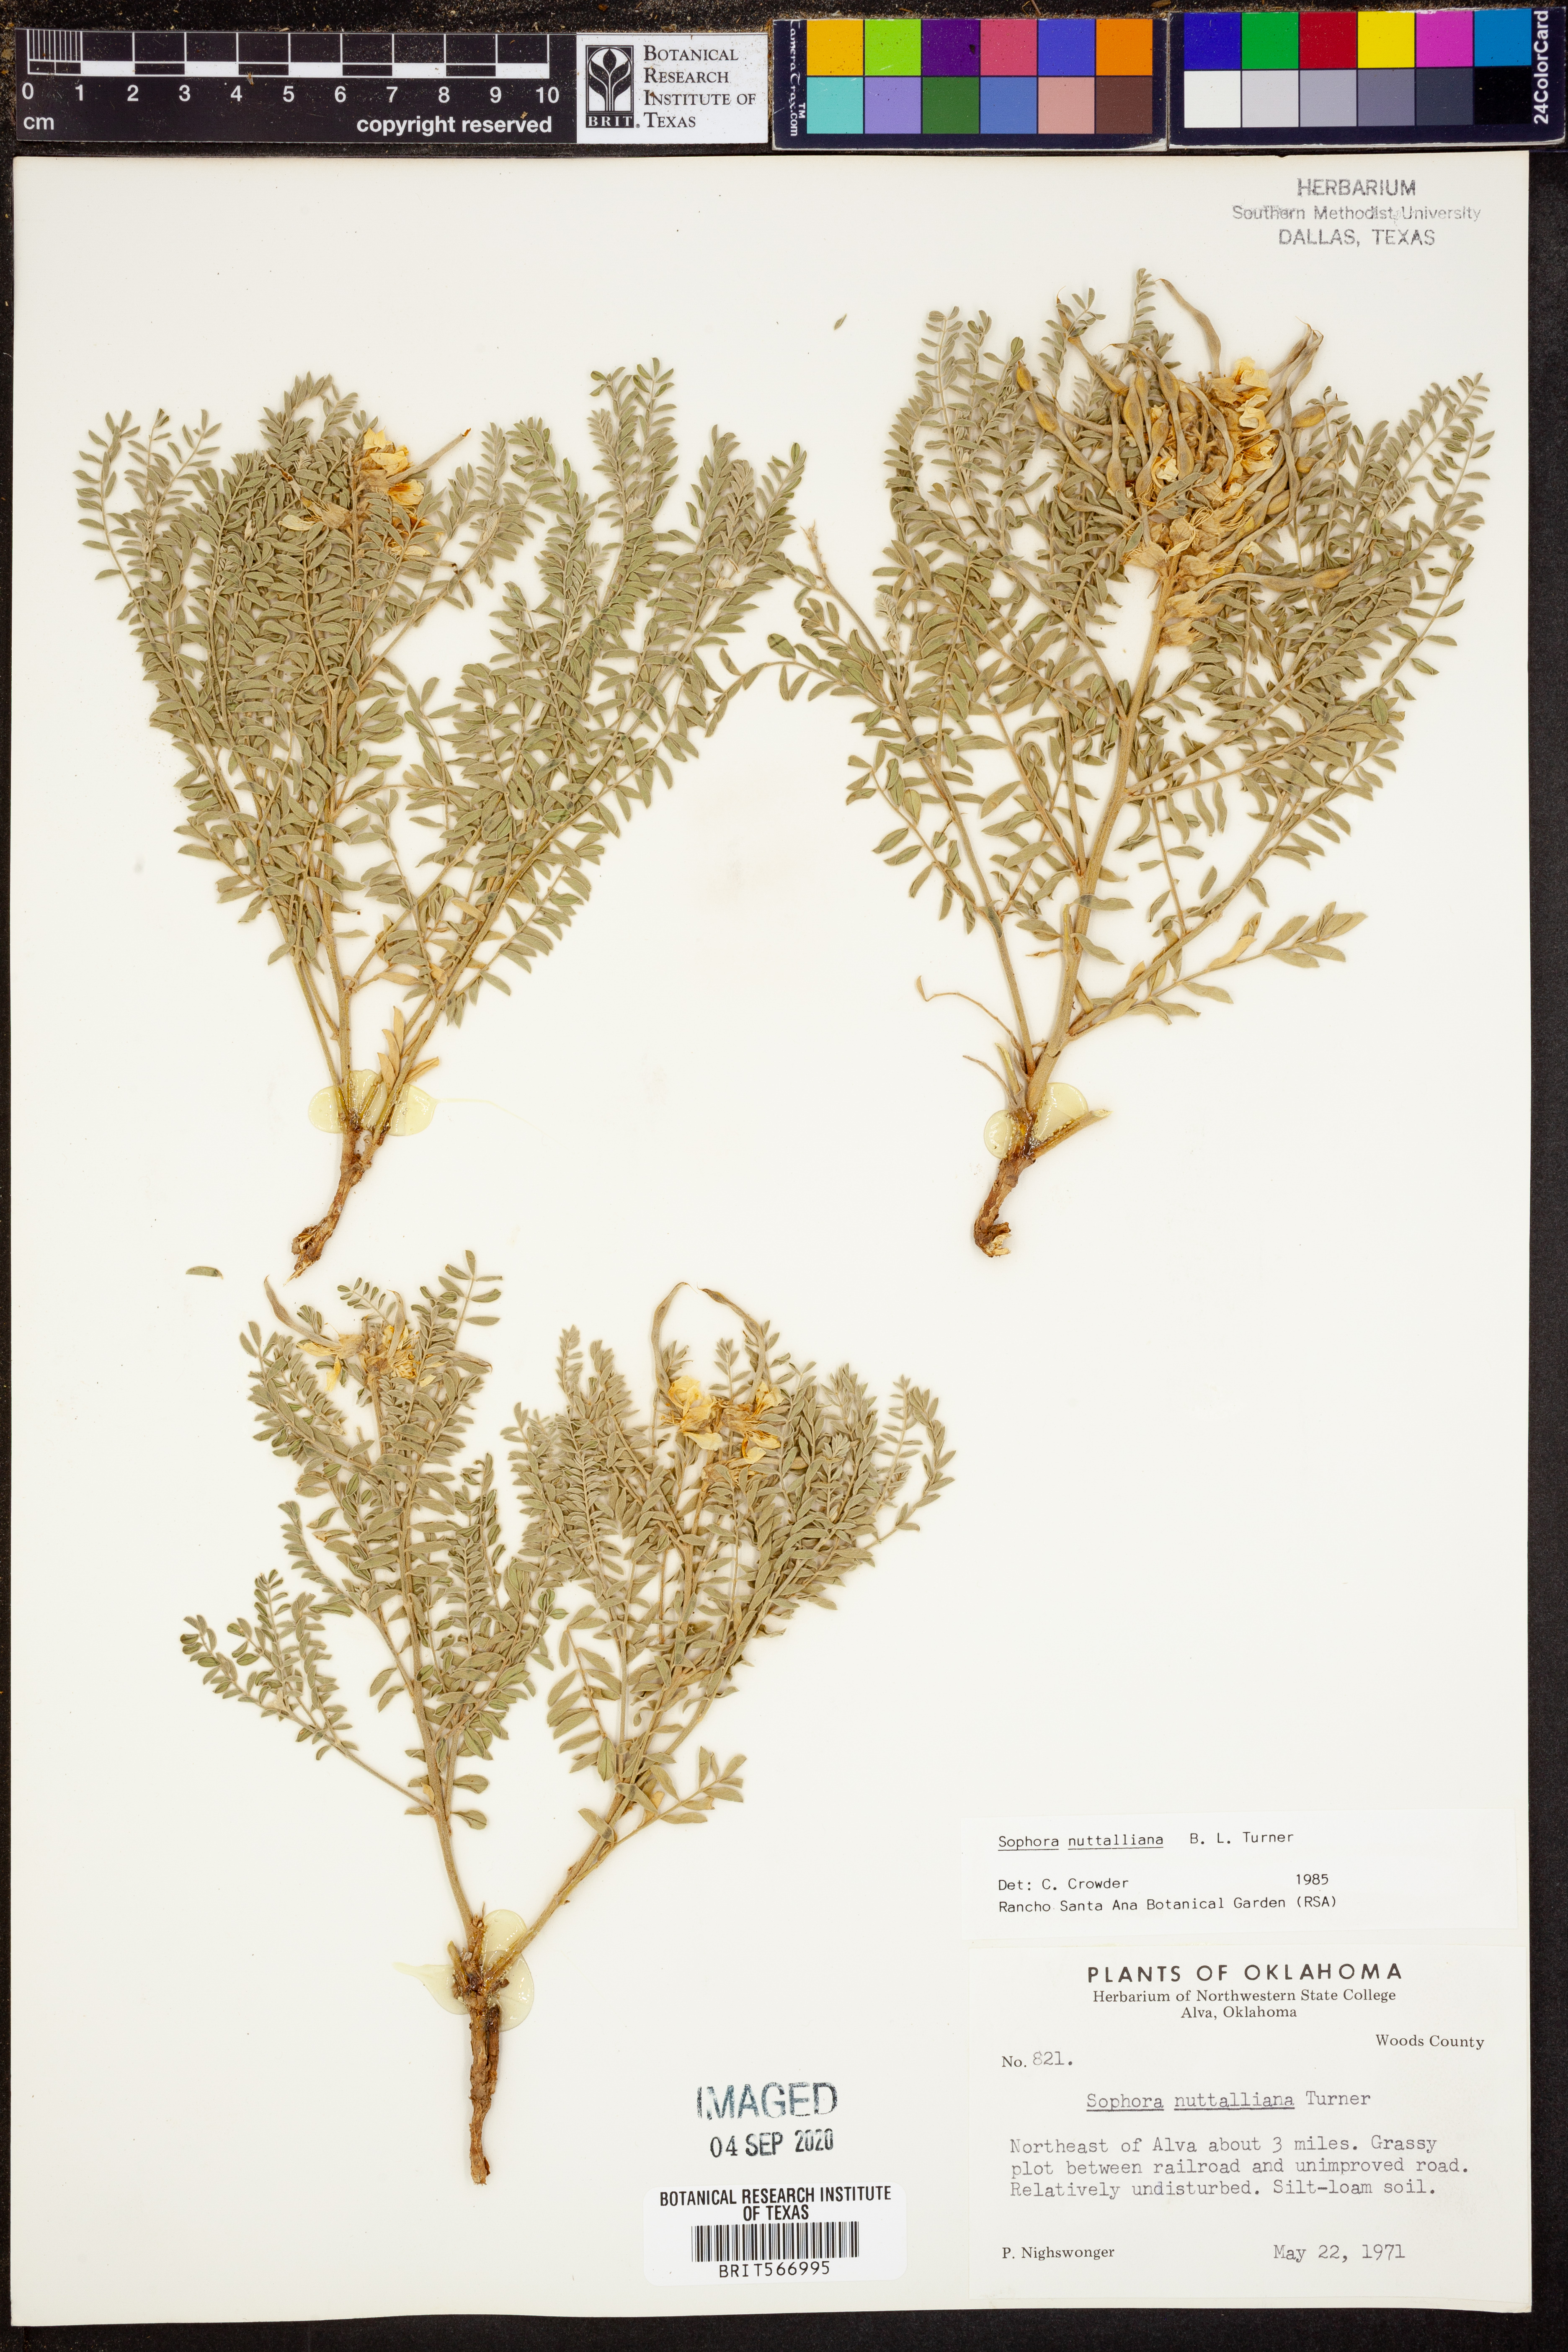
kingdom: Plantae
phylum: Tracheophyta
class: Magnoliopsida
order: Fabales
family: Fabaceae
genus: Sophora
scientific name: Sophora nuttalliana
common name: Silky sophora
